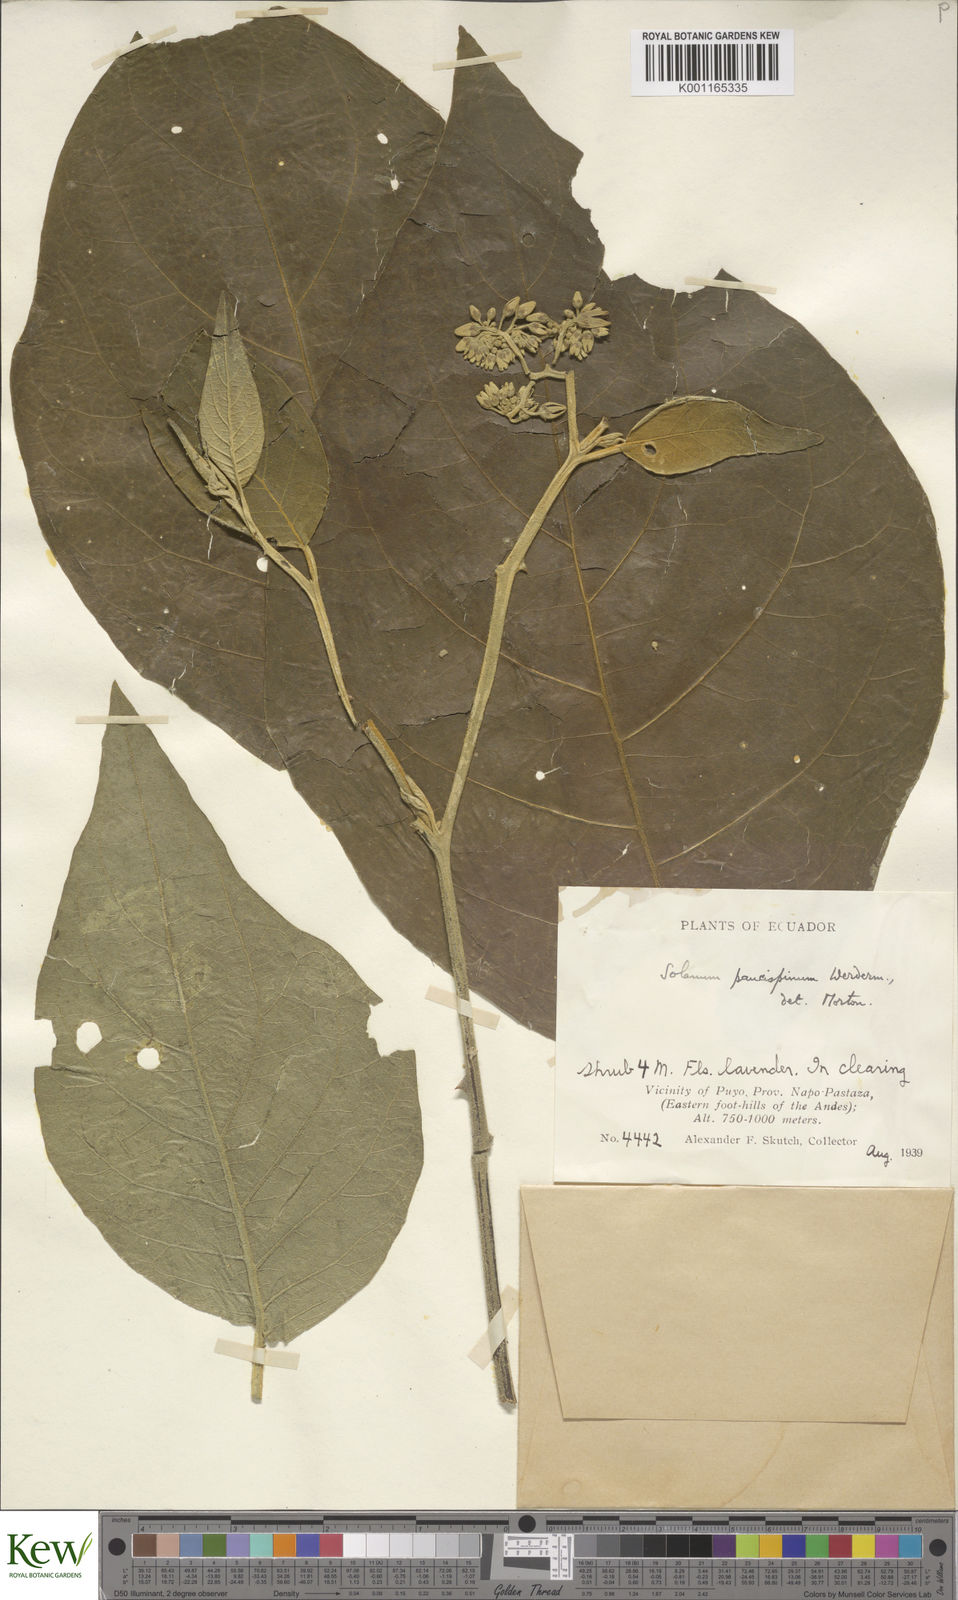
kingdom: Plantae
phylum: Tracheophyta
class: Magnoliopsida
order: Solanales
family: Solanaceae
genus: Solanum
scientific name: Solanum paucispinum
